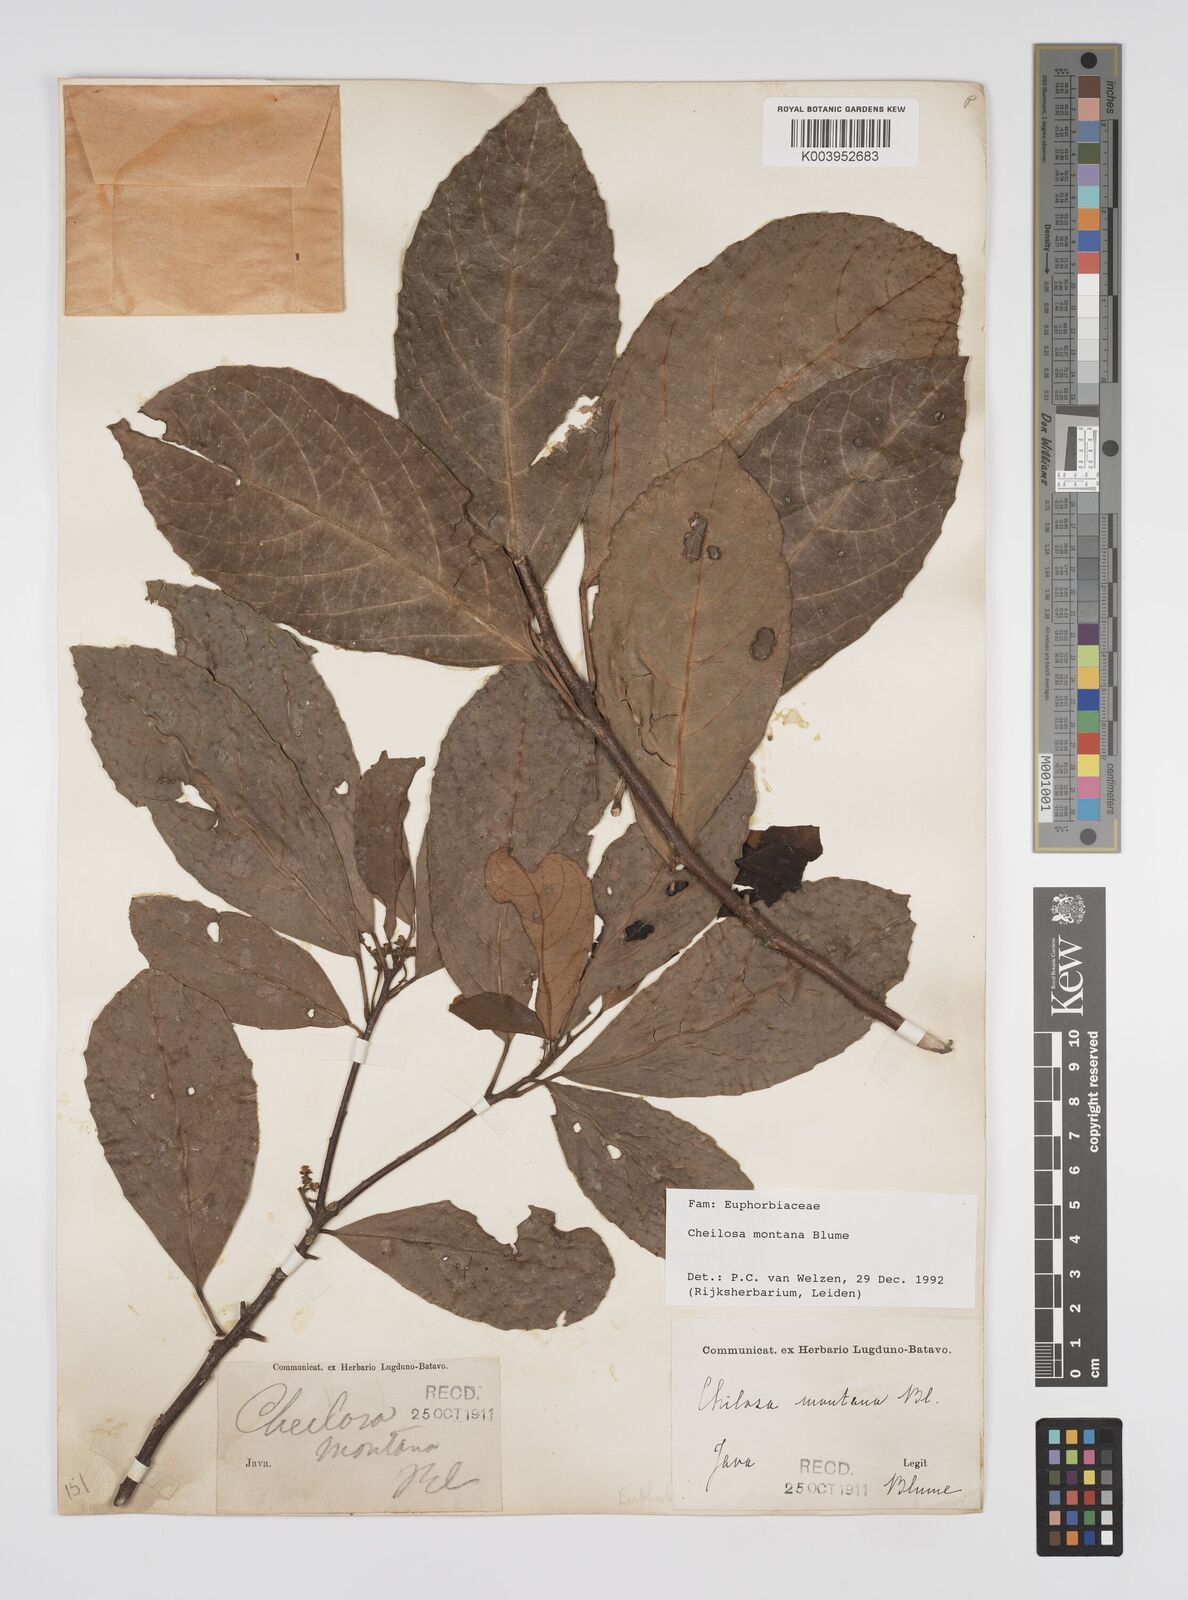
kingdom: Plantae
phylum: Tracheophyta
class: Magnoliopsida
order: Malpighiales
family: Euphorbiaceae
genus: Cheilosa
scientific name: Cheilosa montana
